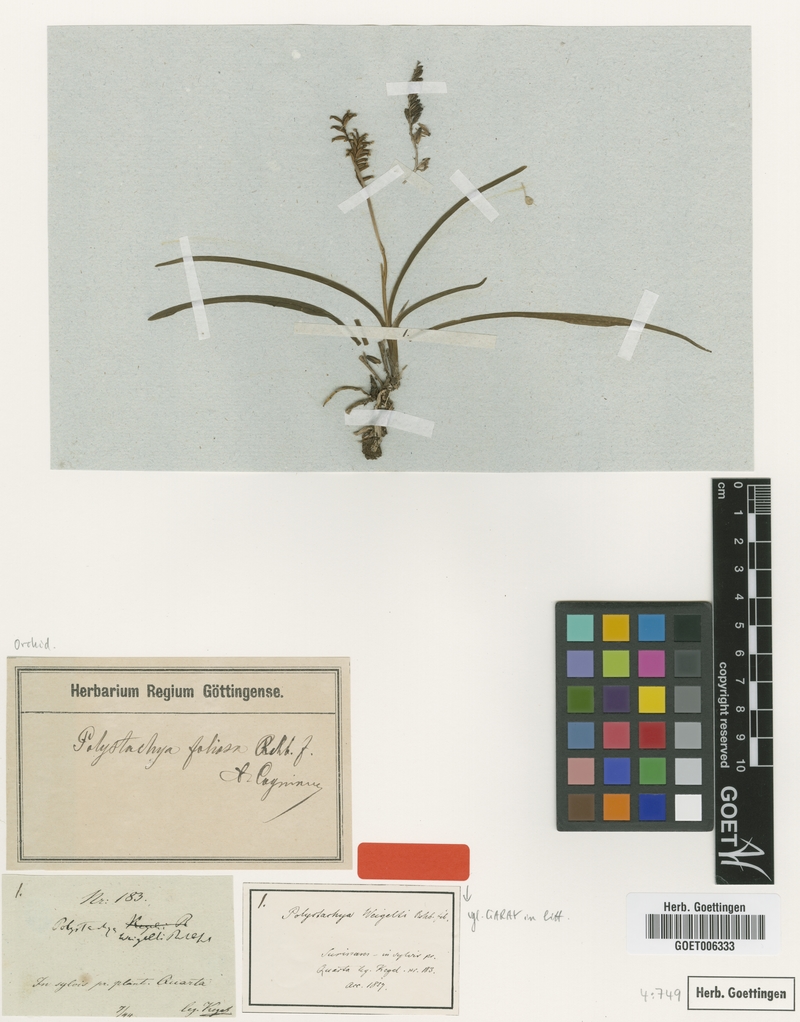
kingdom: Plantae
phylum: Tracheophyta
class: Liliopsida
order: Asparagales
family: Orchidaceae
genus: Polystachya
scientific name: Polystachya foliosa
